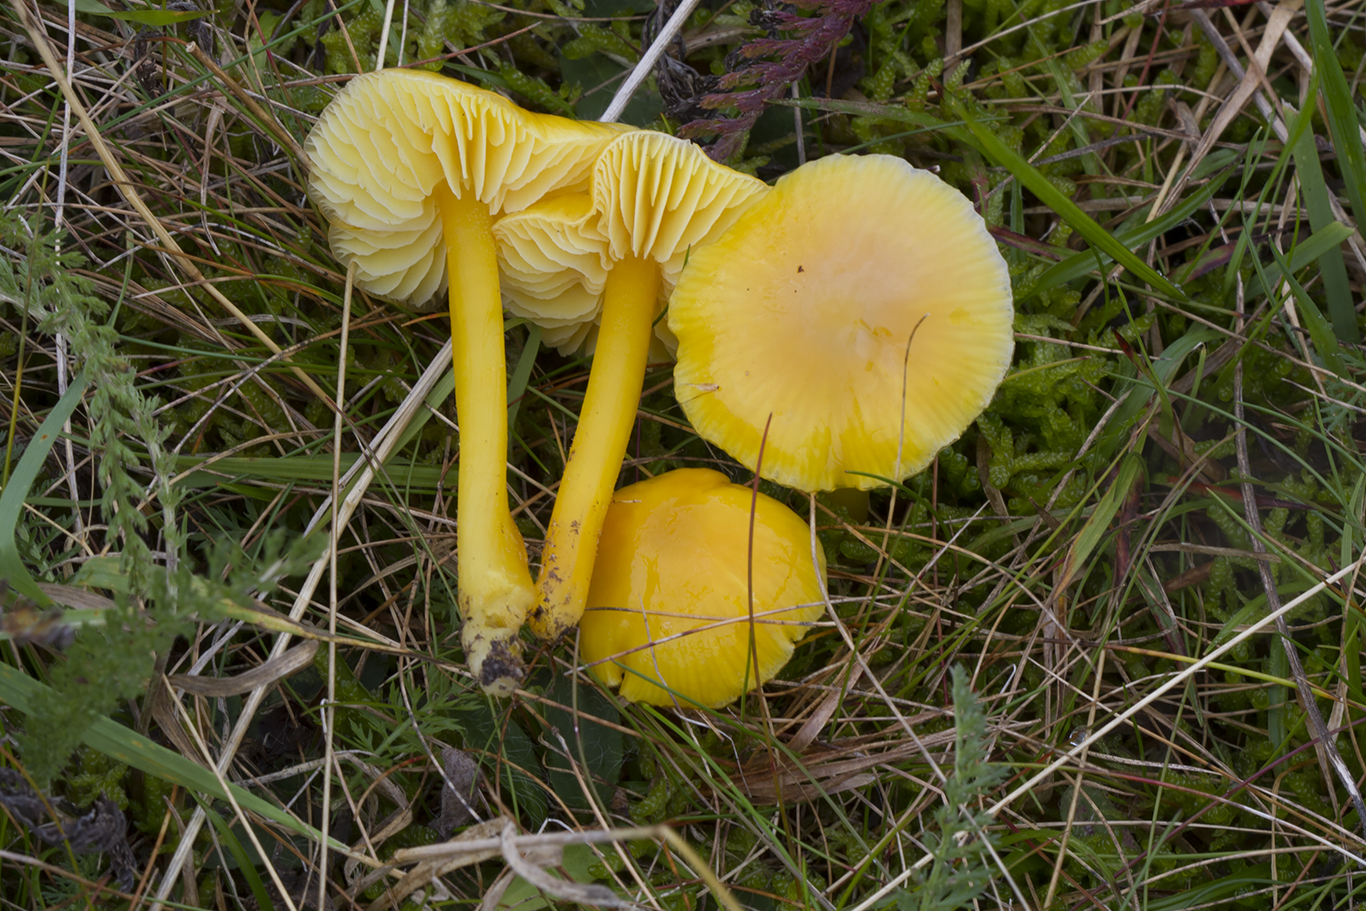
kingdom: Fungi
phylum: Basidiomycota
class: Agaricomycetes
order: Agaricales
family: Hygrophoraceae
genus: Hygrocybe
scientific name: Hygrocybe chlorophana
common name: gul vokshat
